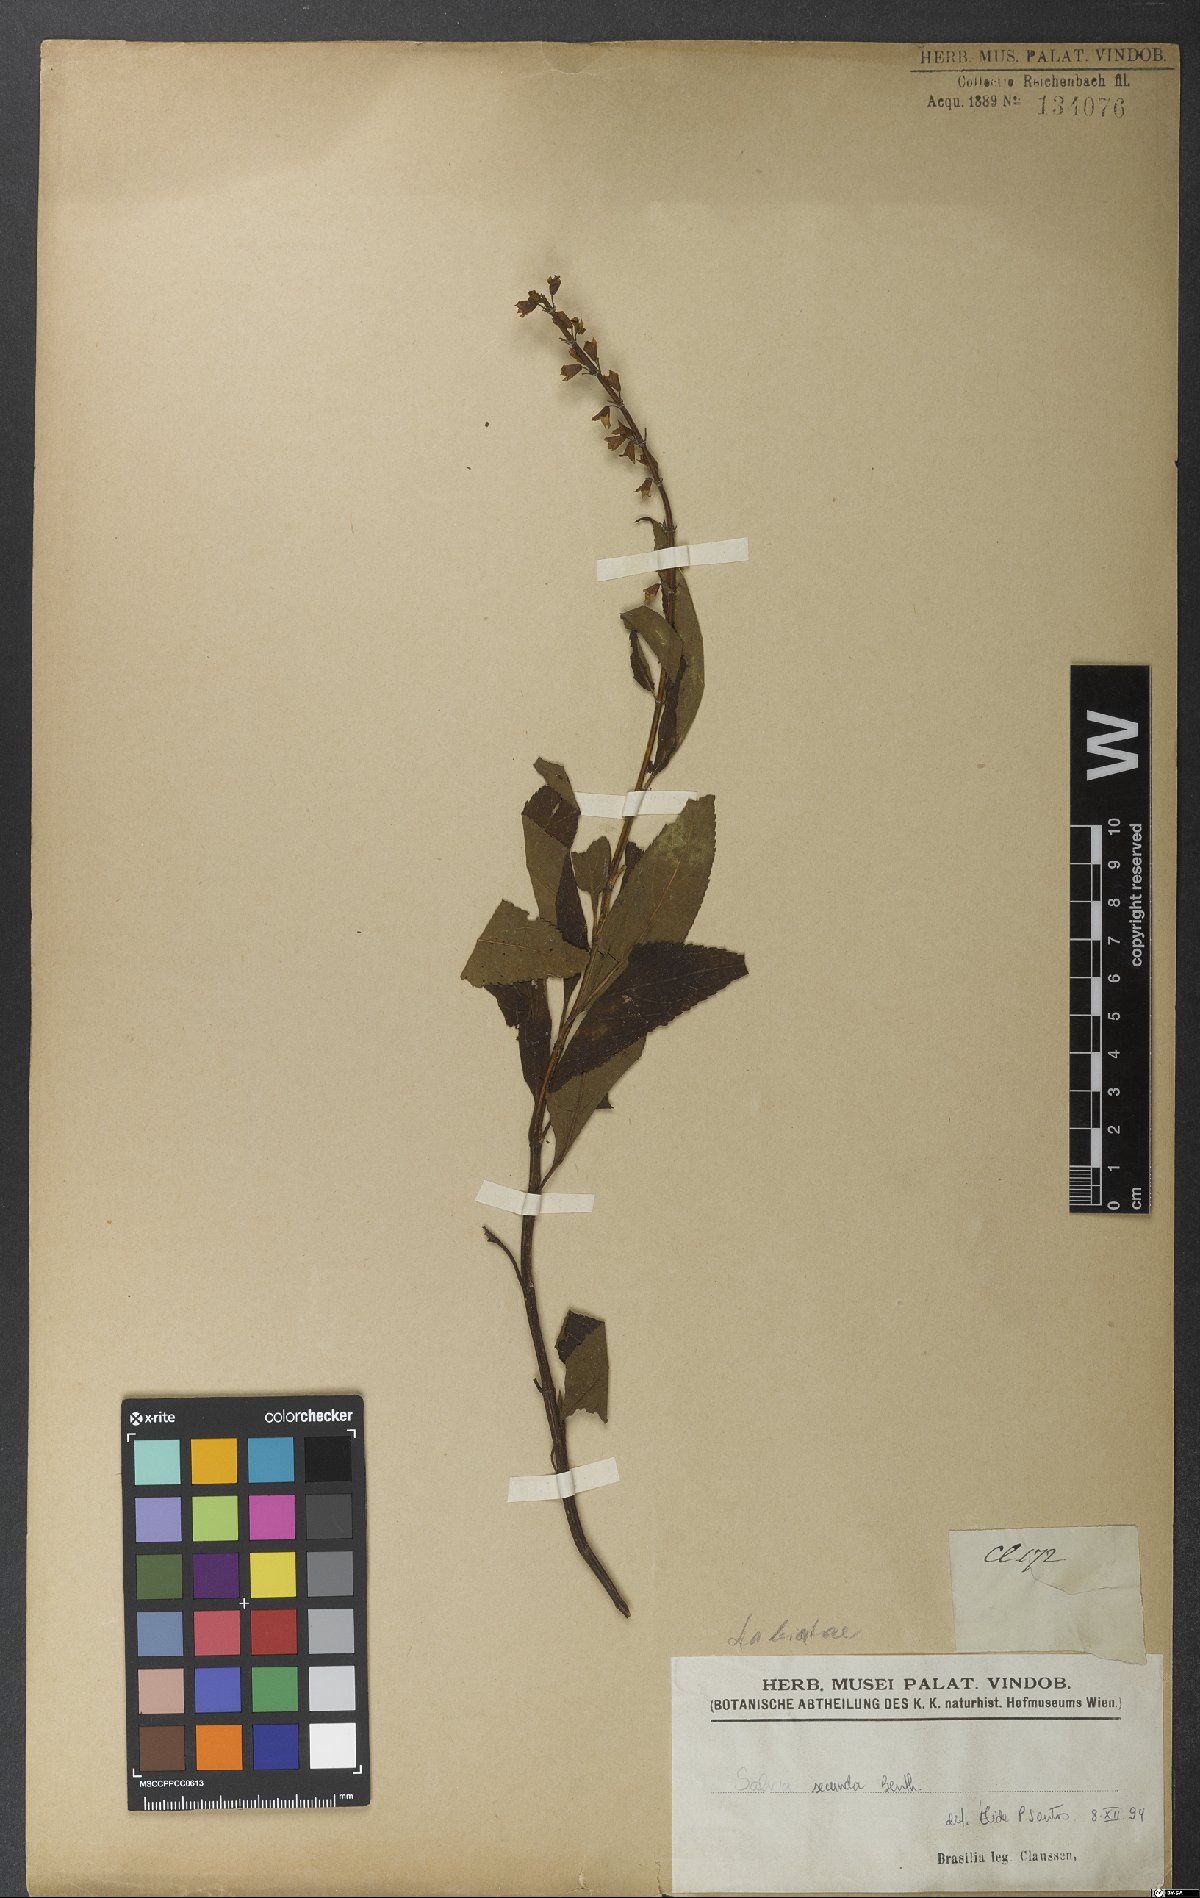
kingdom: Plantae
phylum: Tracheophyta
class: Magnoliopsida
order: Lamiales
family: Lamiaceae
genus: Salvia
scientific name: Salvia secunda
